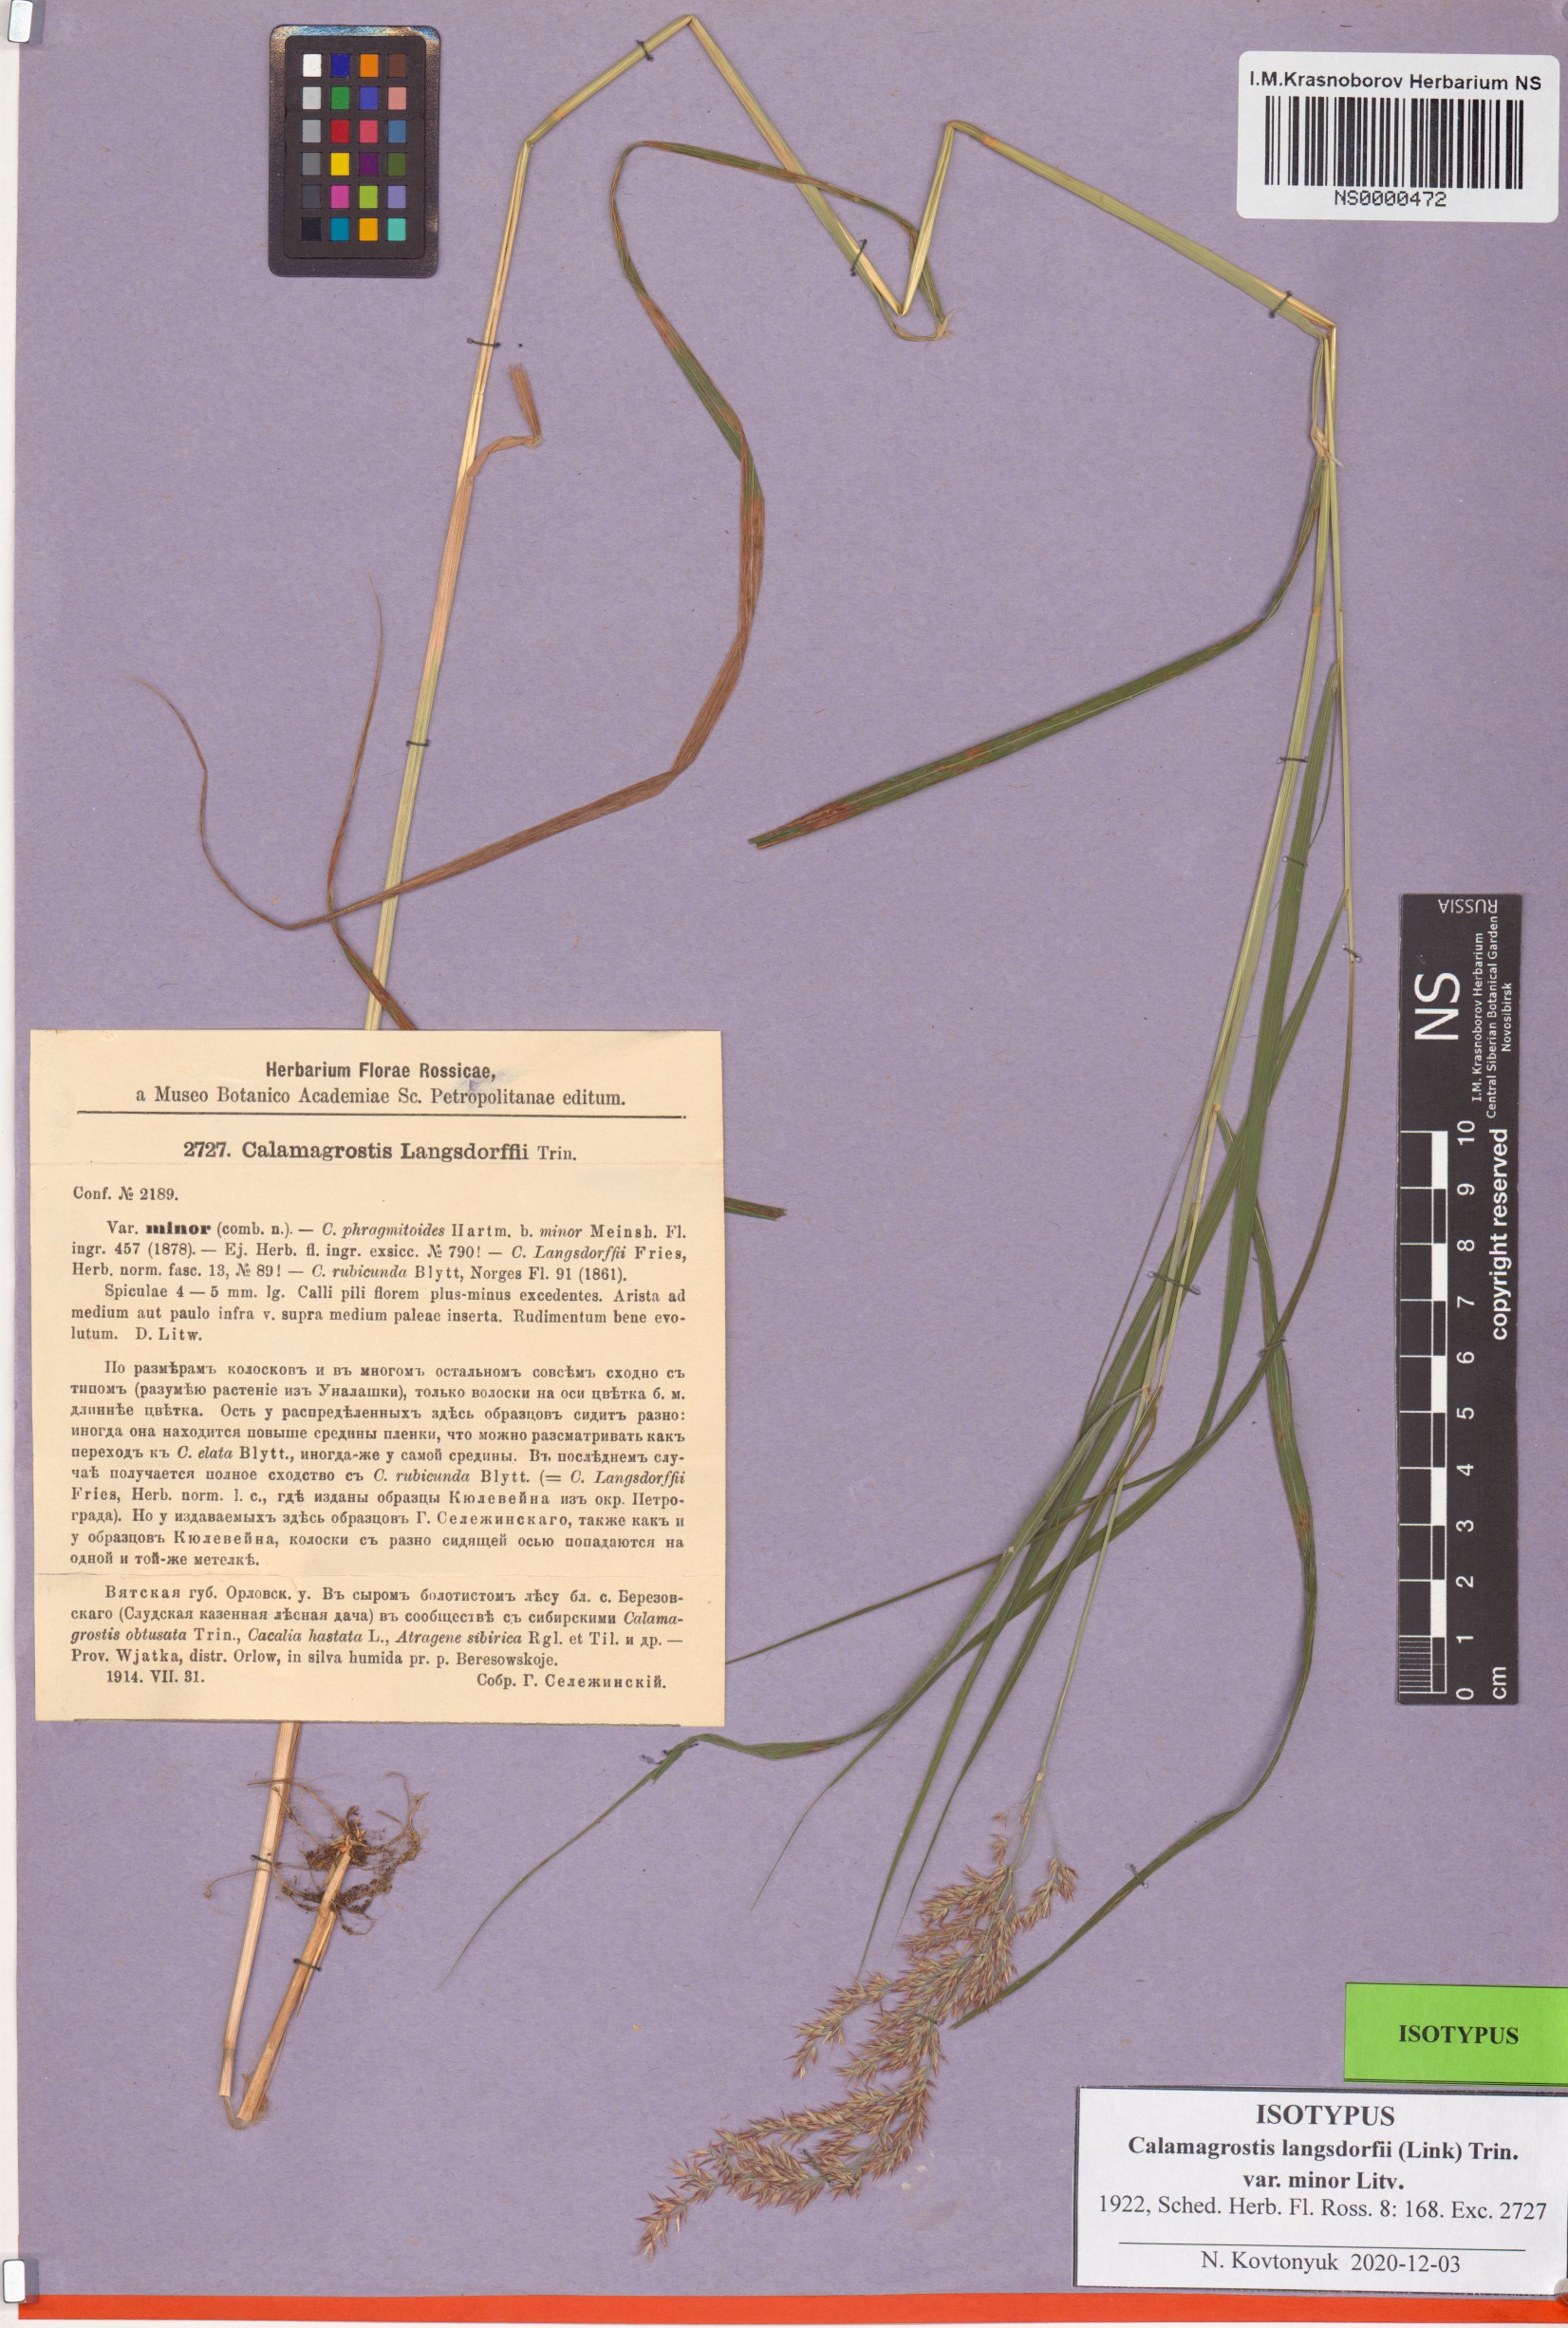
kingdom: Plantae
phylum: Tracheophyta
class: Liliopsida
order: Poales
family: Poaceae
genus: Calamagrostis
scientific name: Calamagrostis purpurea
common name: Scandinavian small-reed
